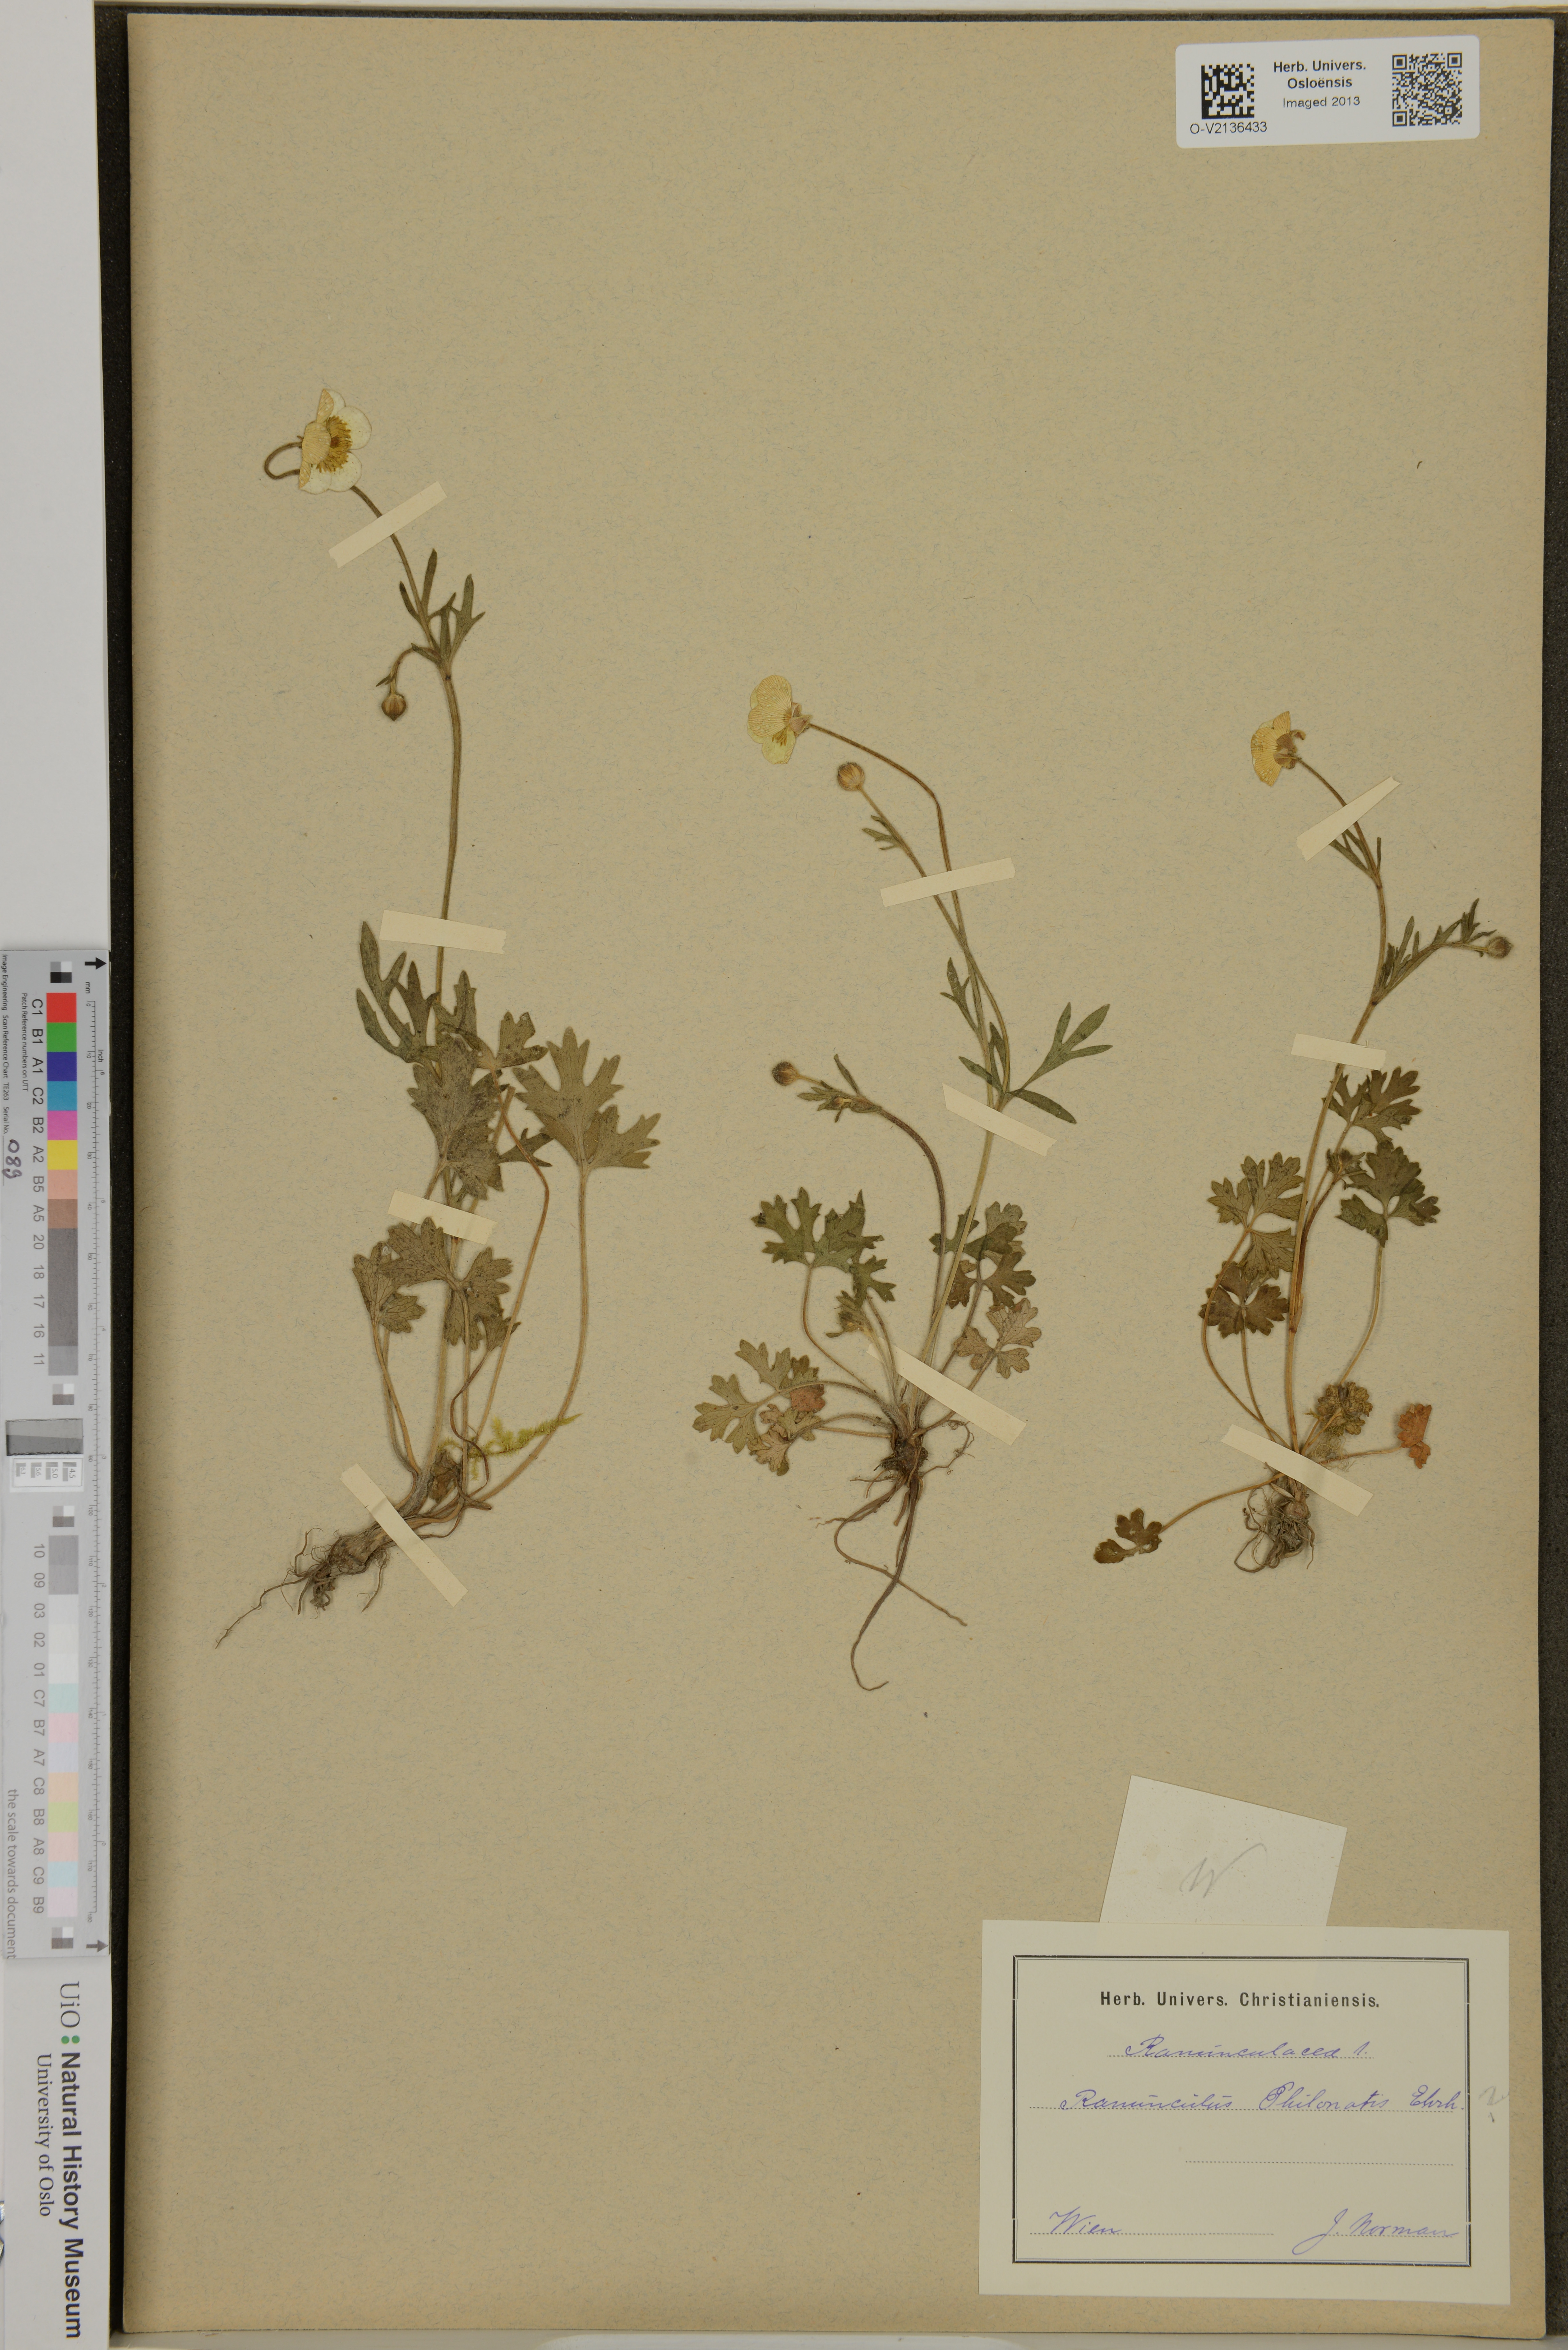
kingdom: Plantae
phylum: Tracheophyta
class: Magnoliopsida
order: Ranunculales
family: Ranunculaceae
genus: Ranunculus
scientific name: Ranunculus sardous
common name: Hairy buttercup
